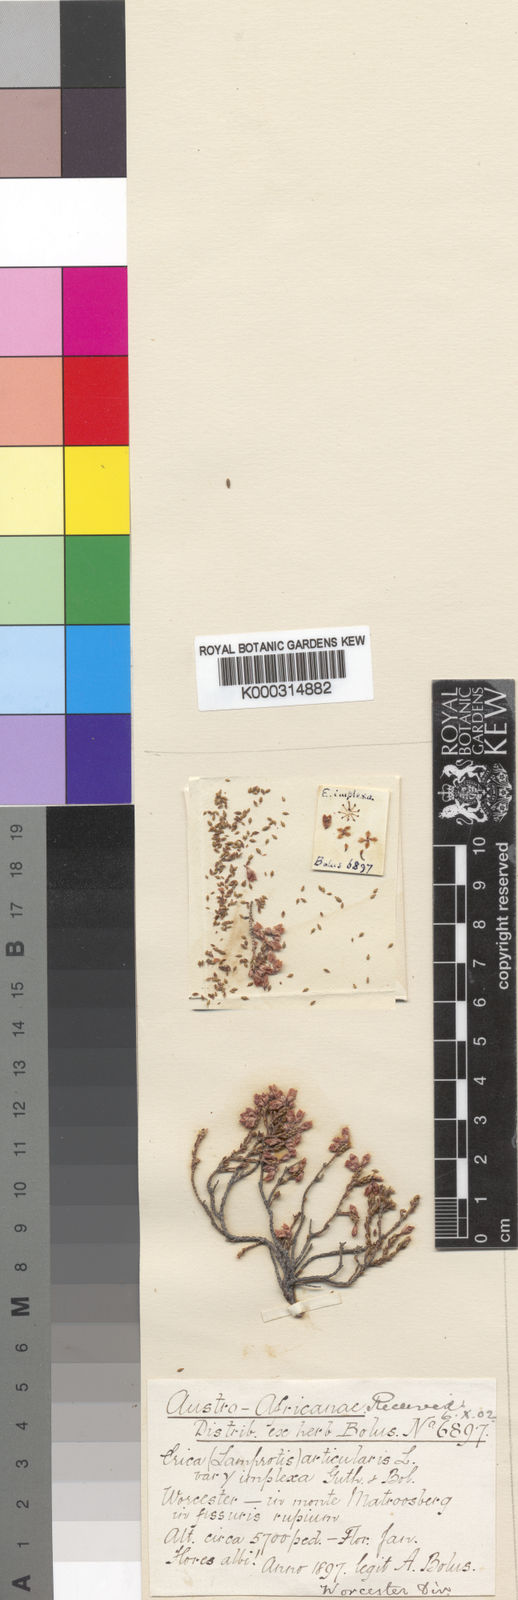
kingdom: Plantae
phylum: Tracheophyta
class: Magnoliopsida
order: Ericales
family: Ericaceae
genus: Erica
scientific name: Erica articularis
